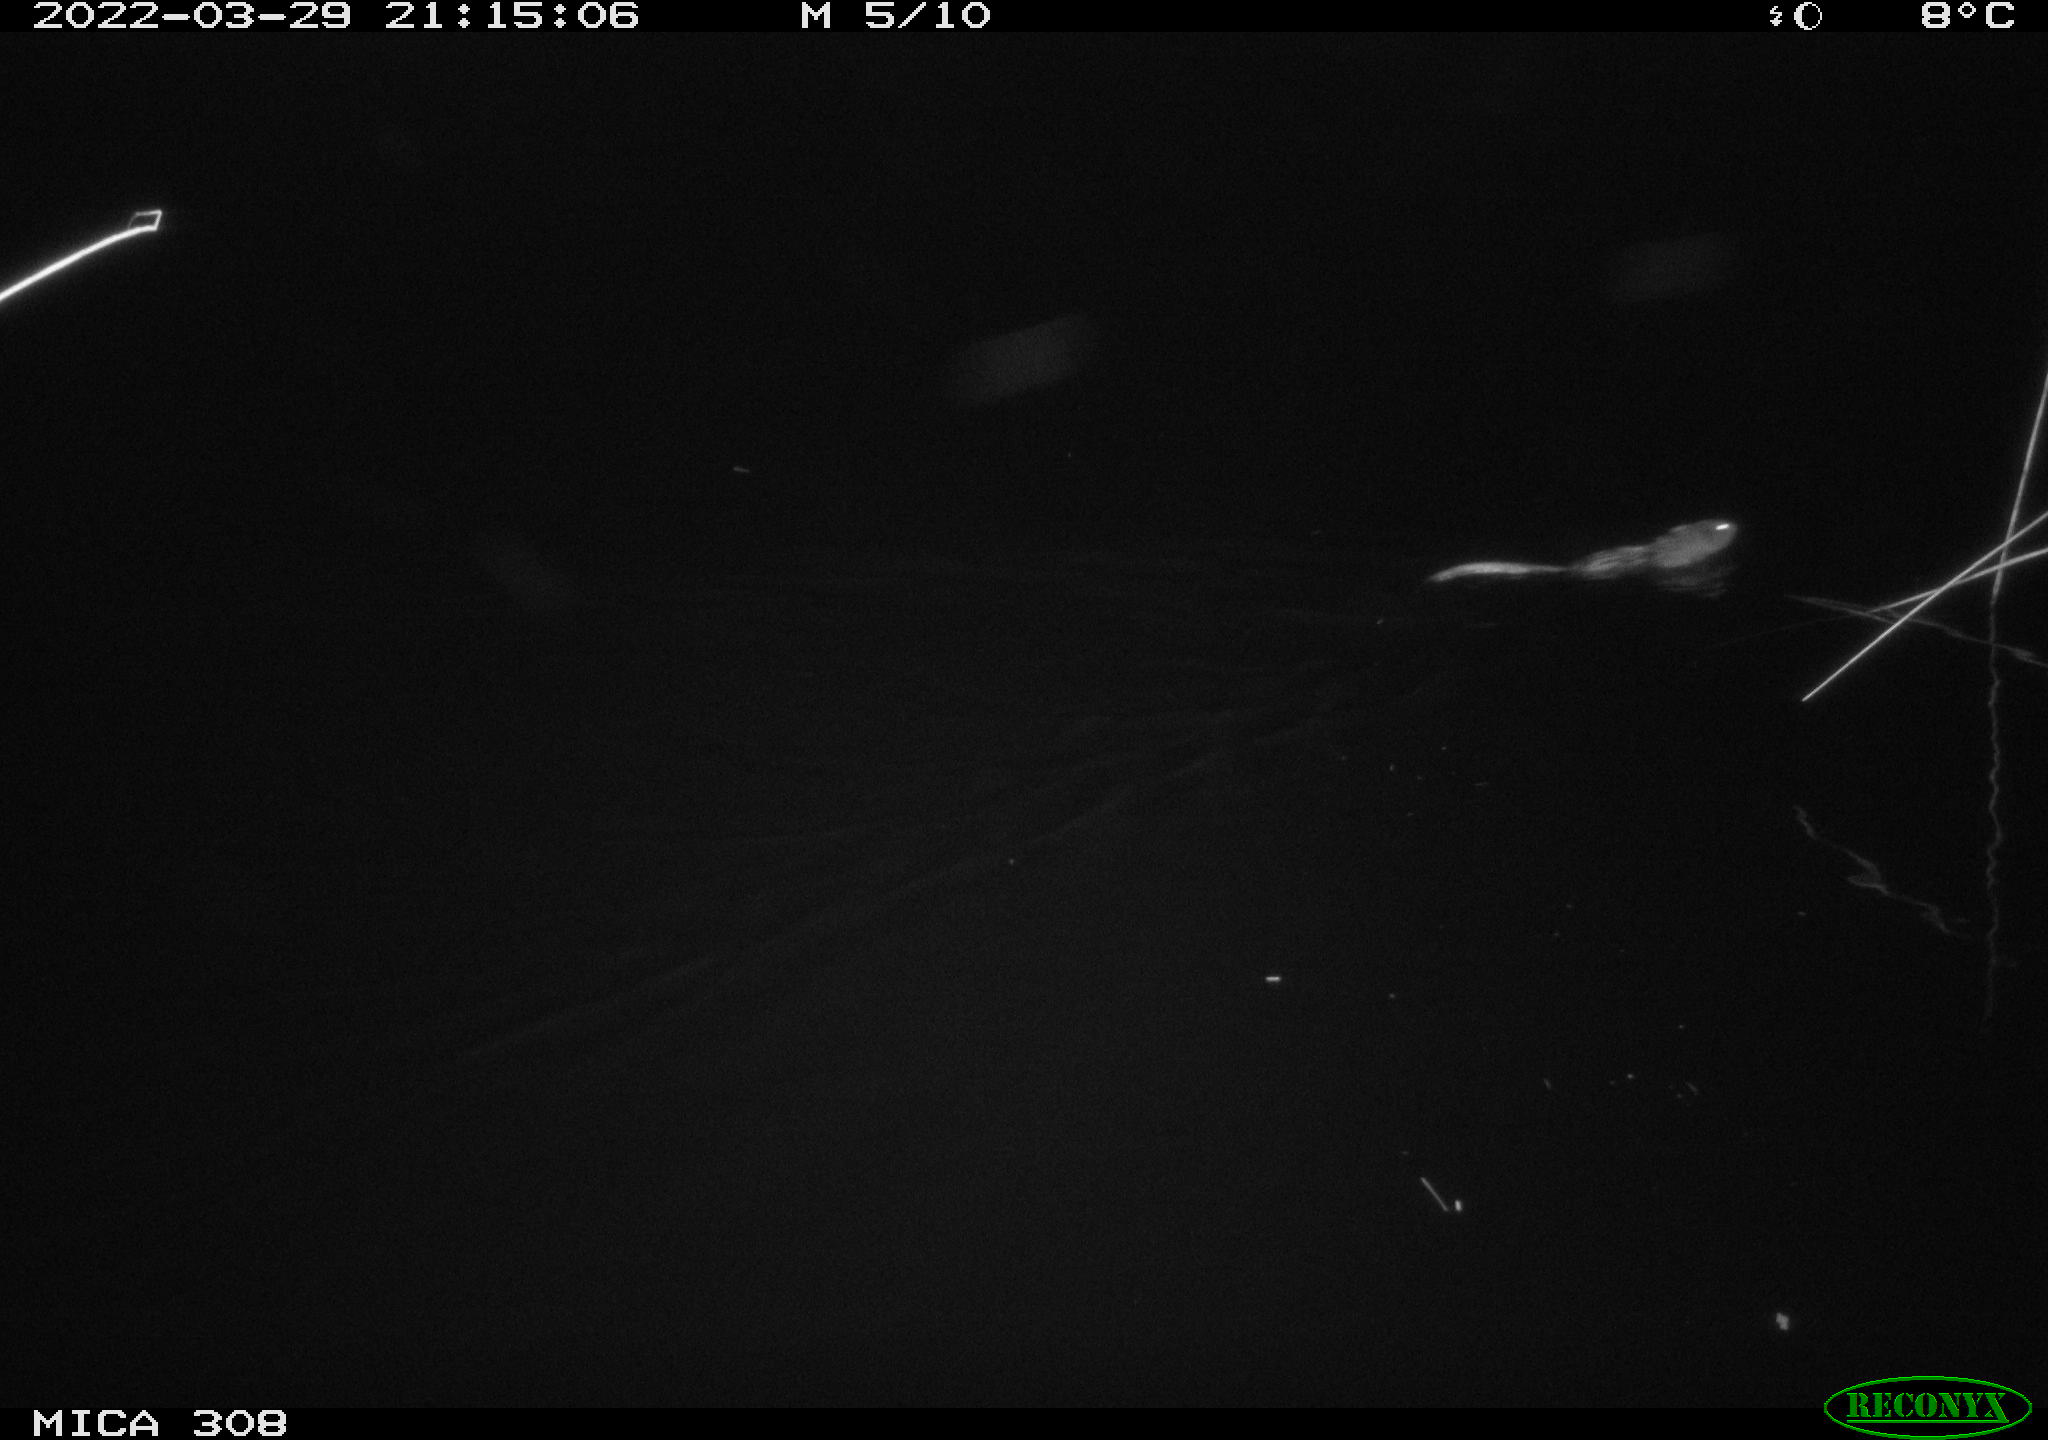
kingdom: Animalia
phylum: Chordata
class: Mammalia
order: Rodentia
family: Cricetidae
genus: Ondatra
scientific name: Ondatra zibethicus
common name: Muskrat
